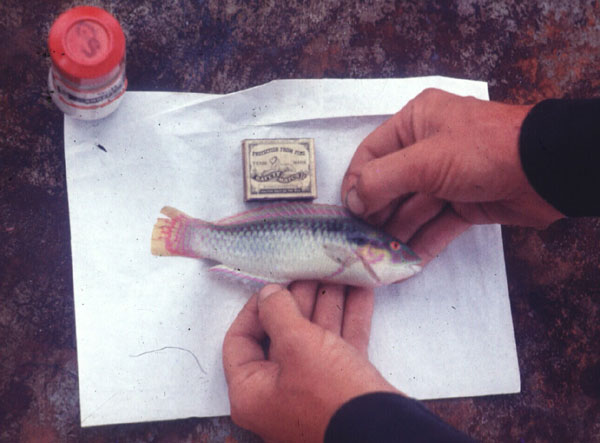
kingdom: Animalia
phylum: Chordata
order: Perciformes
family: Labridae
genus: Halichoeres
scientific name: Halichoeres scapularis
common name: Brownbanded wrasse
